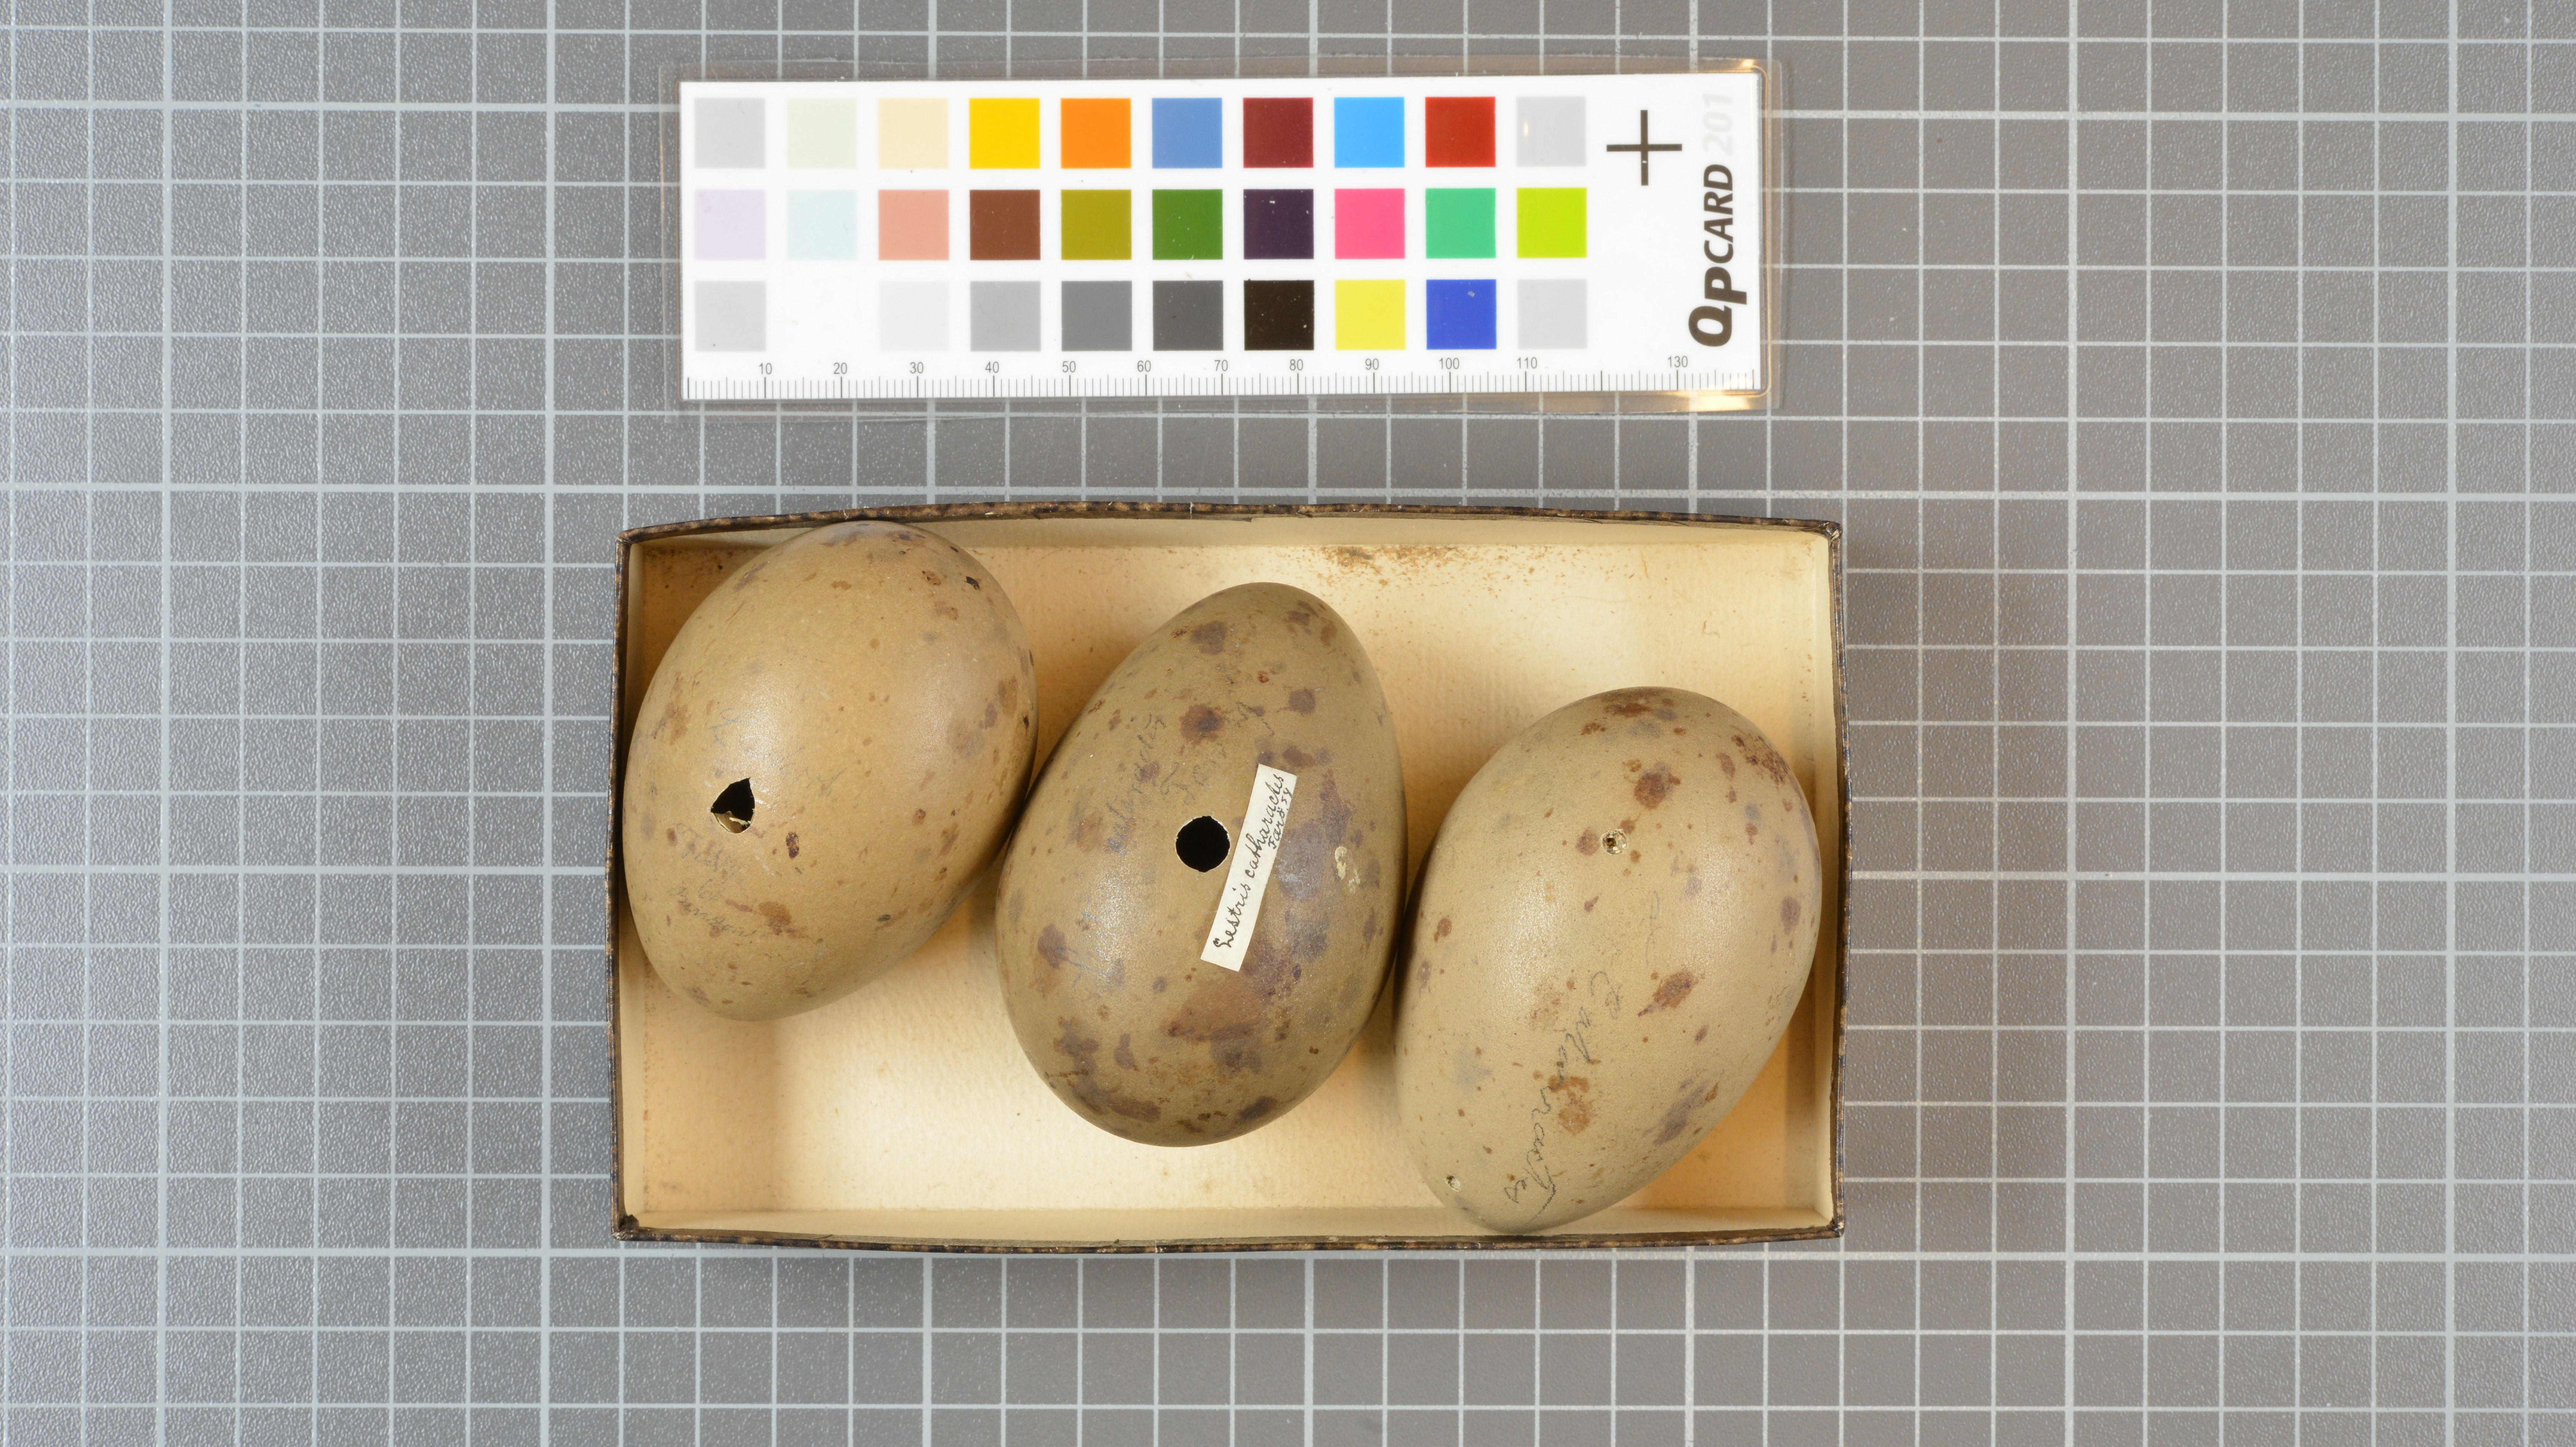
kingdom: Animalia
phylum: Chordata
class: Aves
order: Charadriiformes
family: Stercorariidae
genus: Stercorarius
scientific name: Stercorarius skua
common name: Great skua
